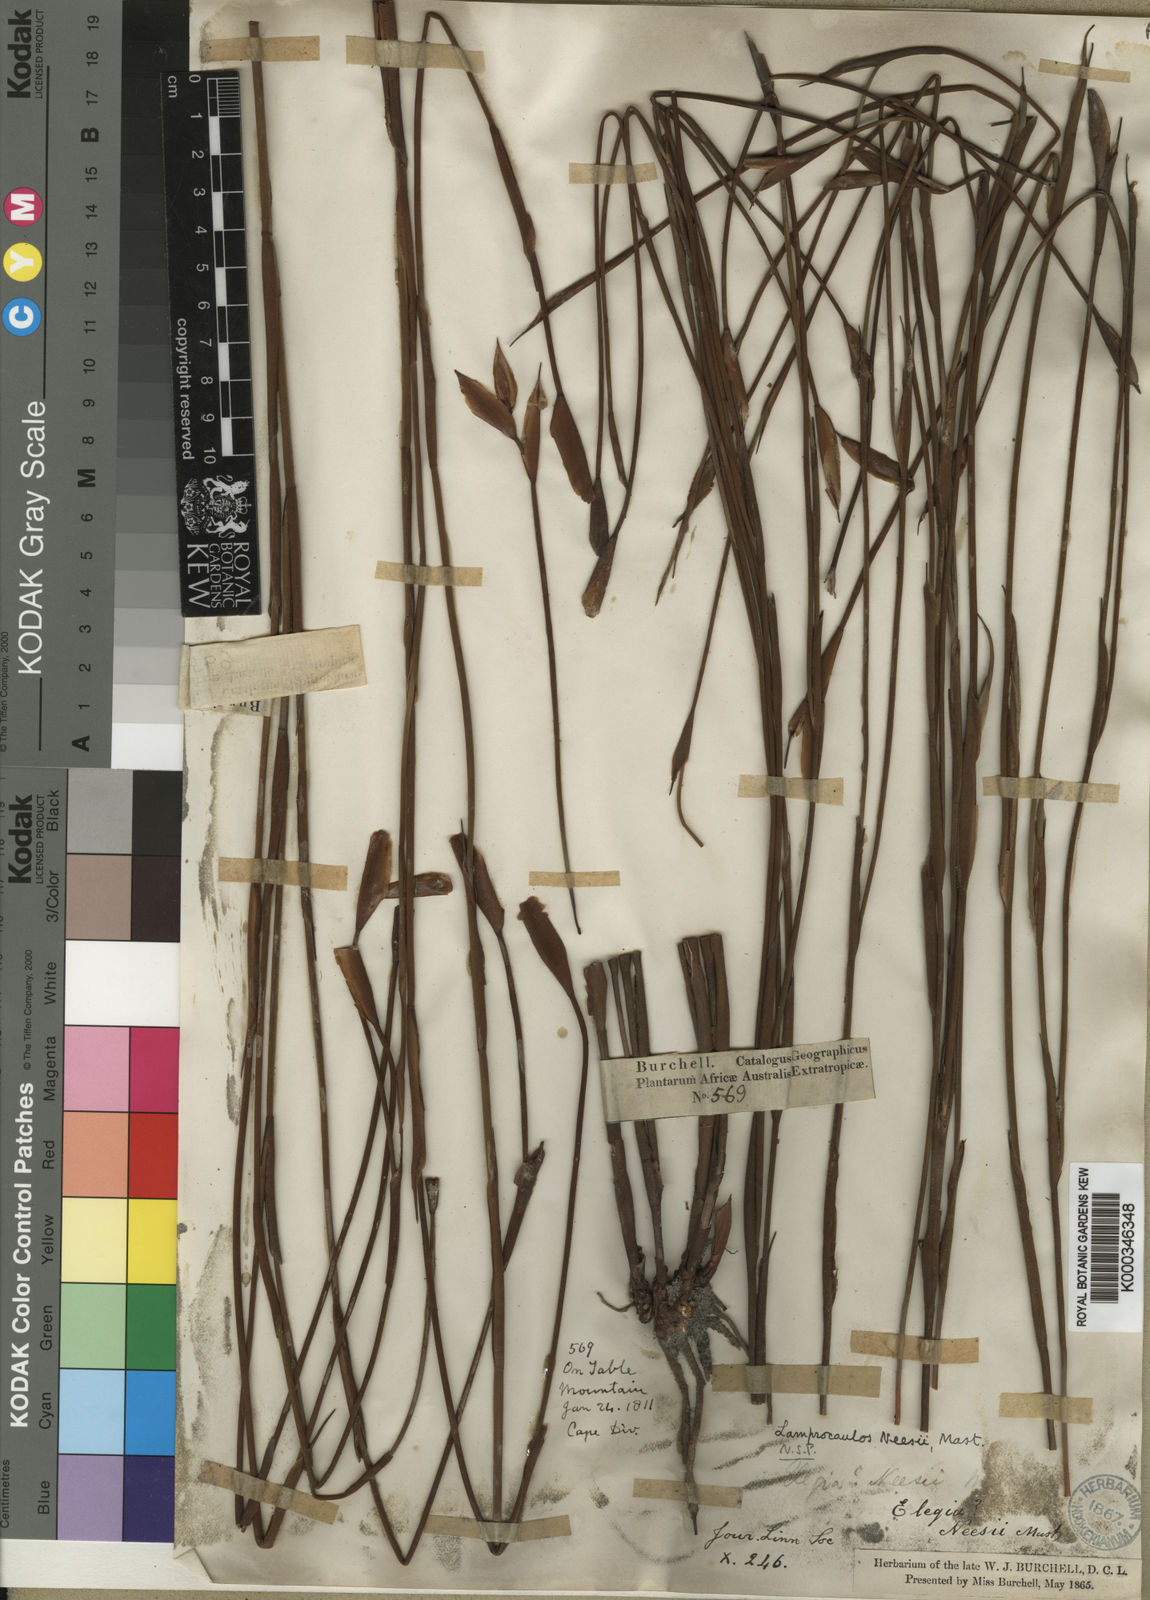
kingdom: Plantae
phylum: Tracheophyta
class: Liliopsida
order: Poales
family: Restionaceae
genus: Elegia
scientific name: Elegia neesii
